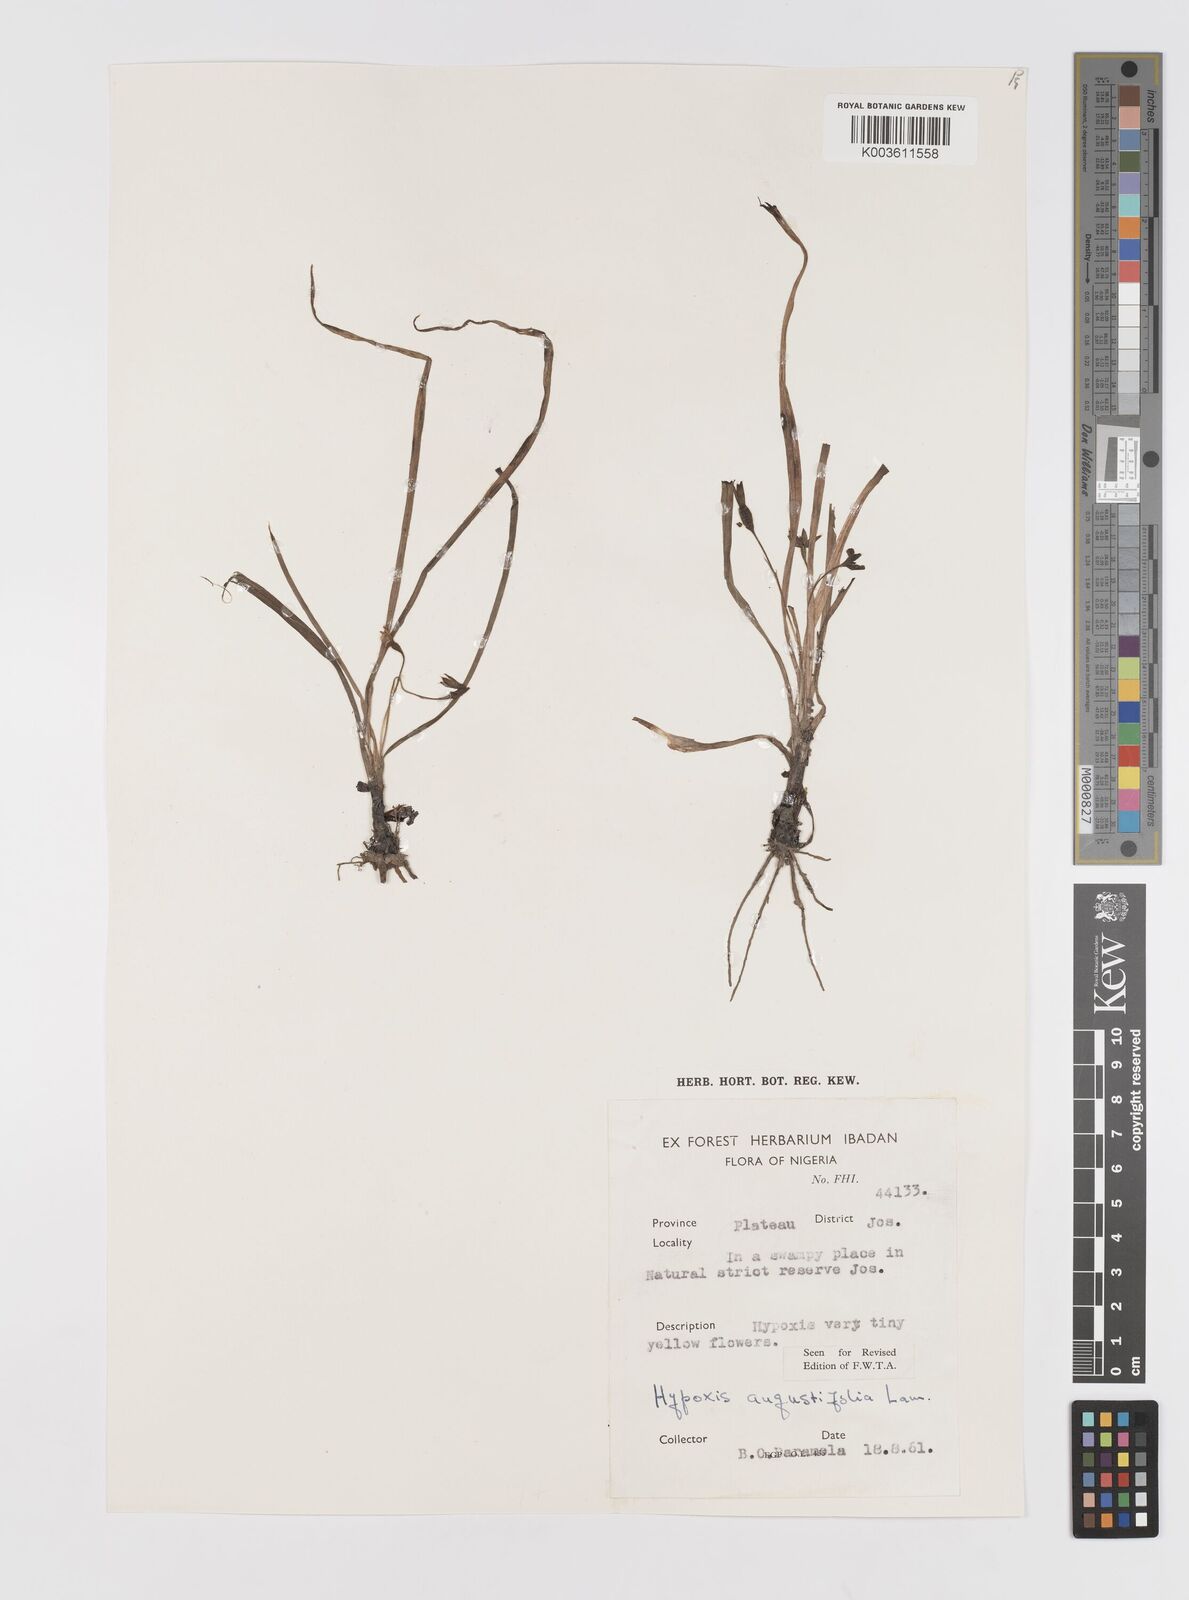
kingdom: Plantae
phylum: Tracheophyta
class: Liliopsida
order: Asparagales
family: Hypoxidaceae
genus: Hypoxis
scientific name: Hypoxis angustifolia
